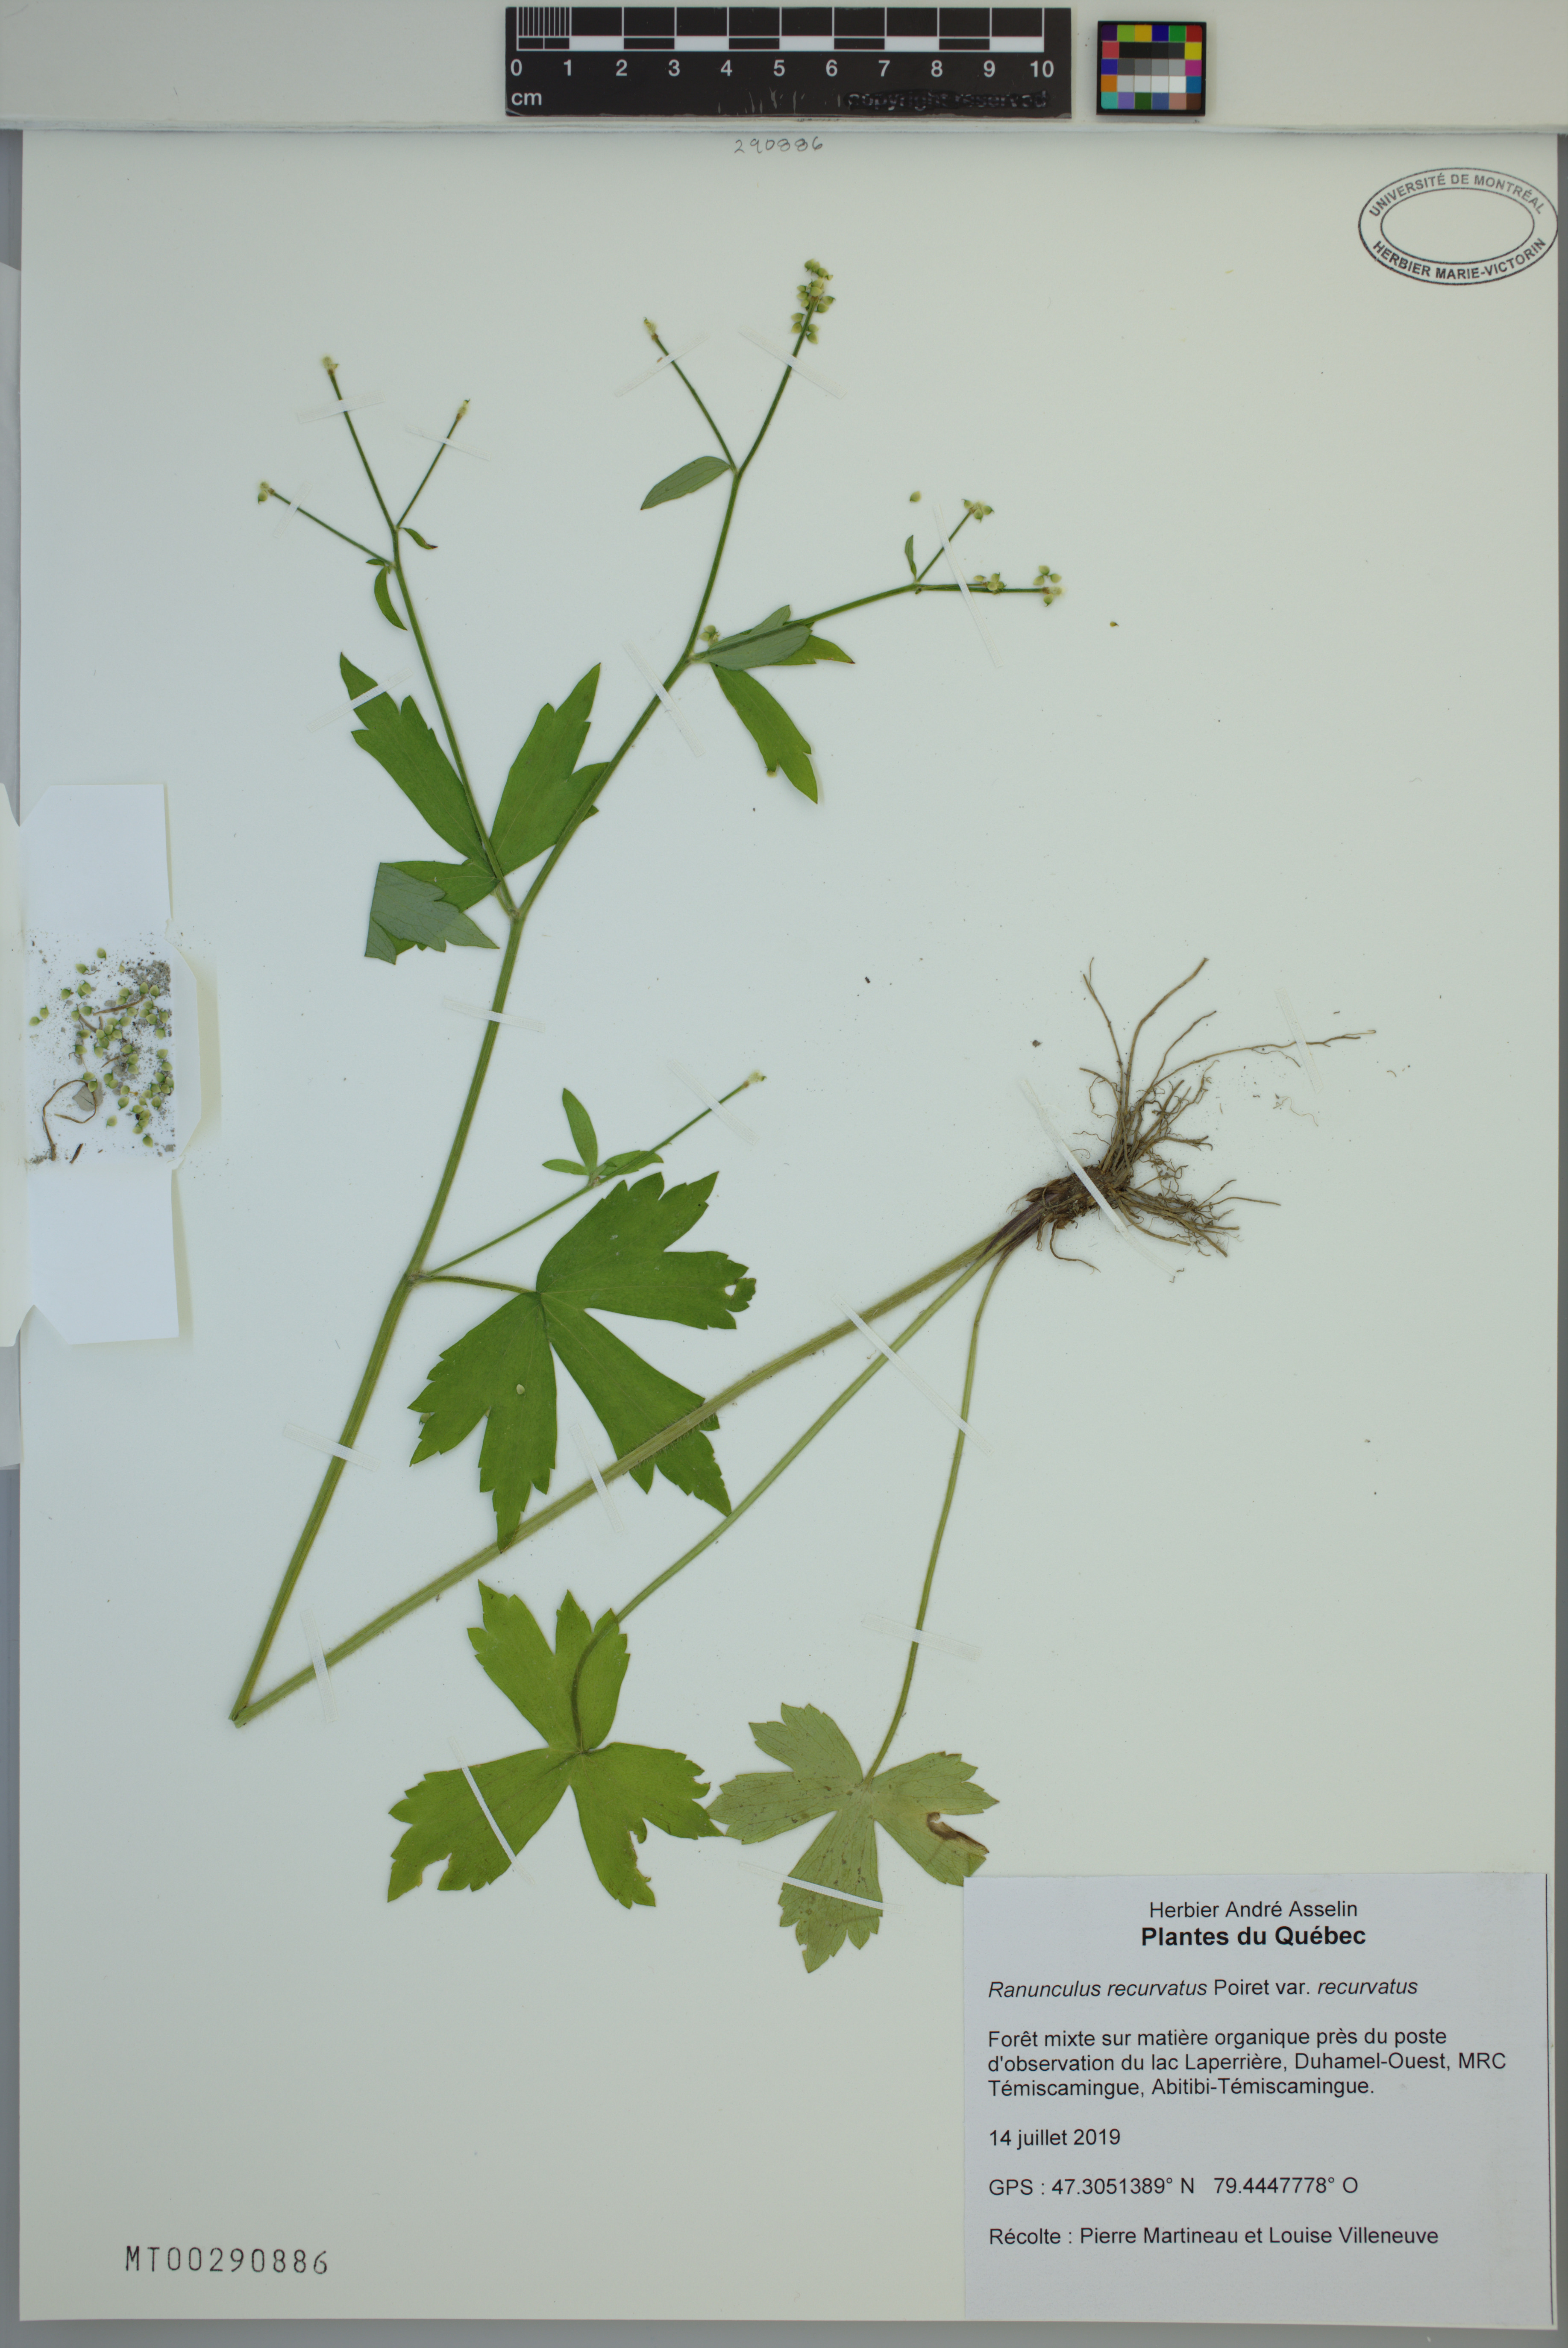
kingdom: Plantae
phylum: Tracheophyta
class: Magnoliopsida
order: Ranunculales
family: Ranunculaceae
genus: Ranunculus
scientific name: Ranunculus recurvatus
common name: Blisterwort
